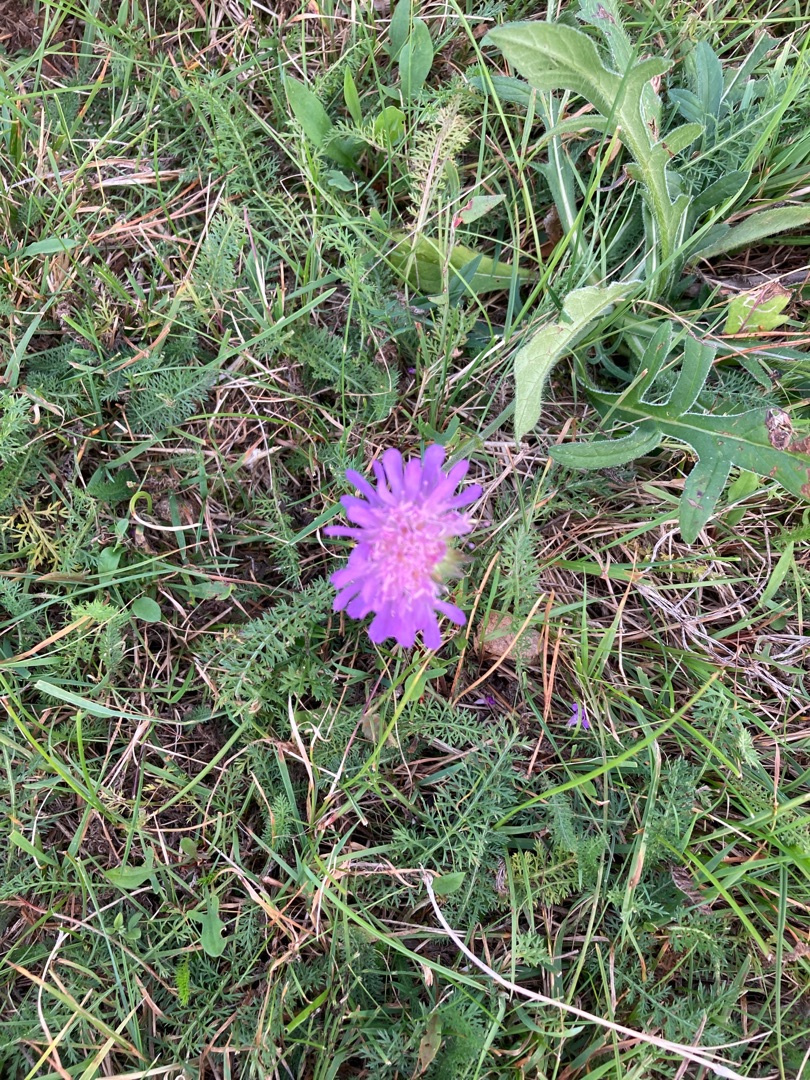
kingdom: Plantae
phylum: Tracheophyta
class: Magnoliopsida
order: Dipsacales
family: Caprifoliaceae
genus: Knautia
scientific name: Knautia arvensis
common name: Blåhat
